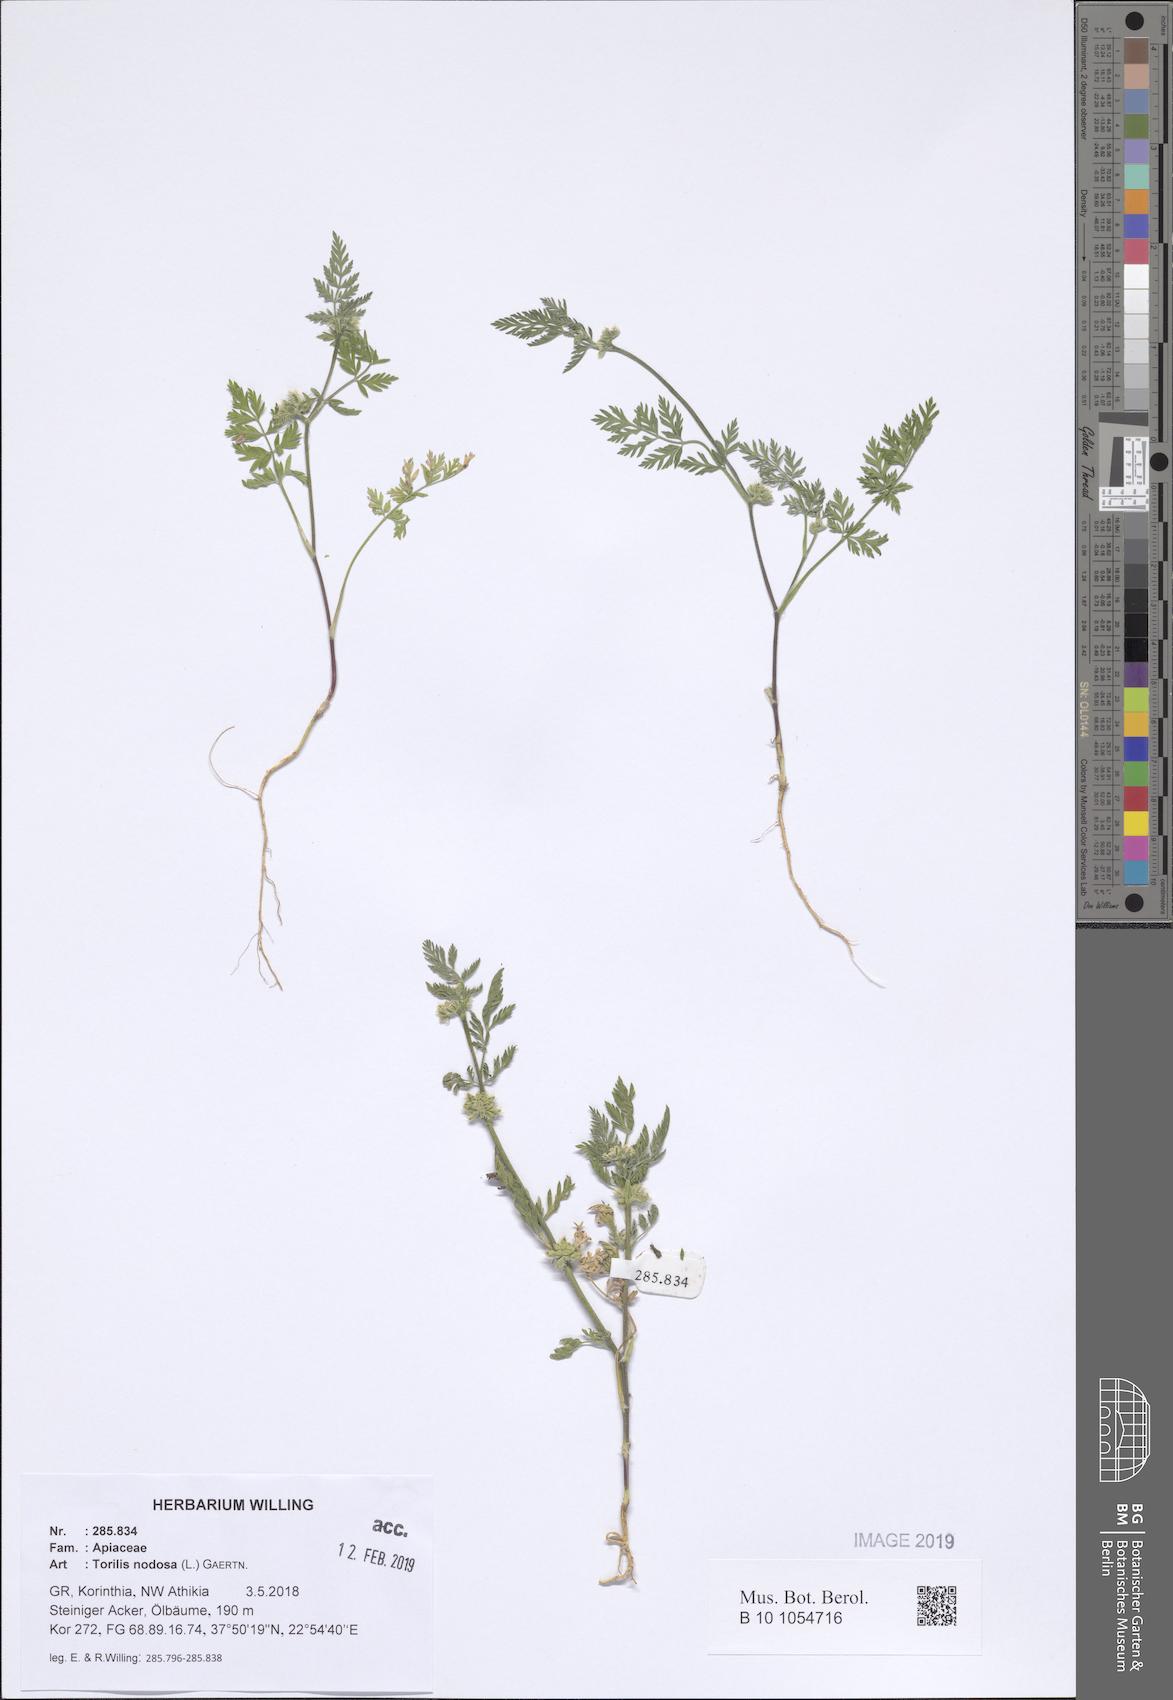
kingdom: Plantae
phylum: Tracheophyta
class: Magnoliopsida
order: Apiales
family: Apiaceae
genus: Torilis
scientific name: Torilis nodosa
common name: Knotted hedge-parsley
